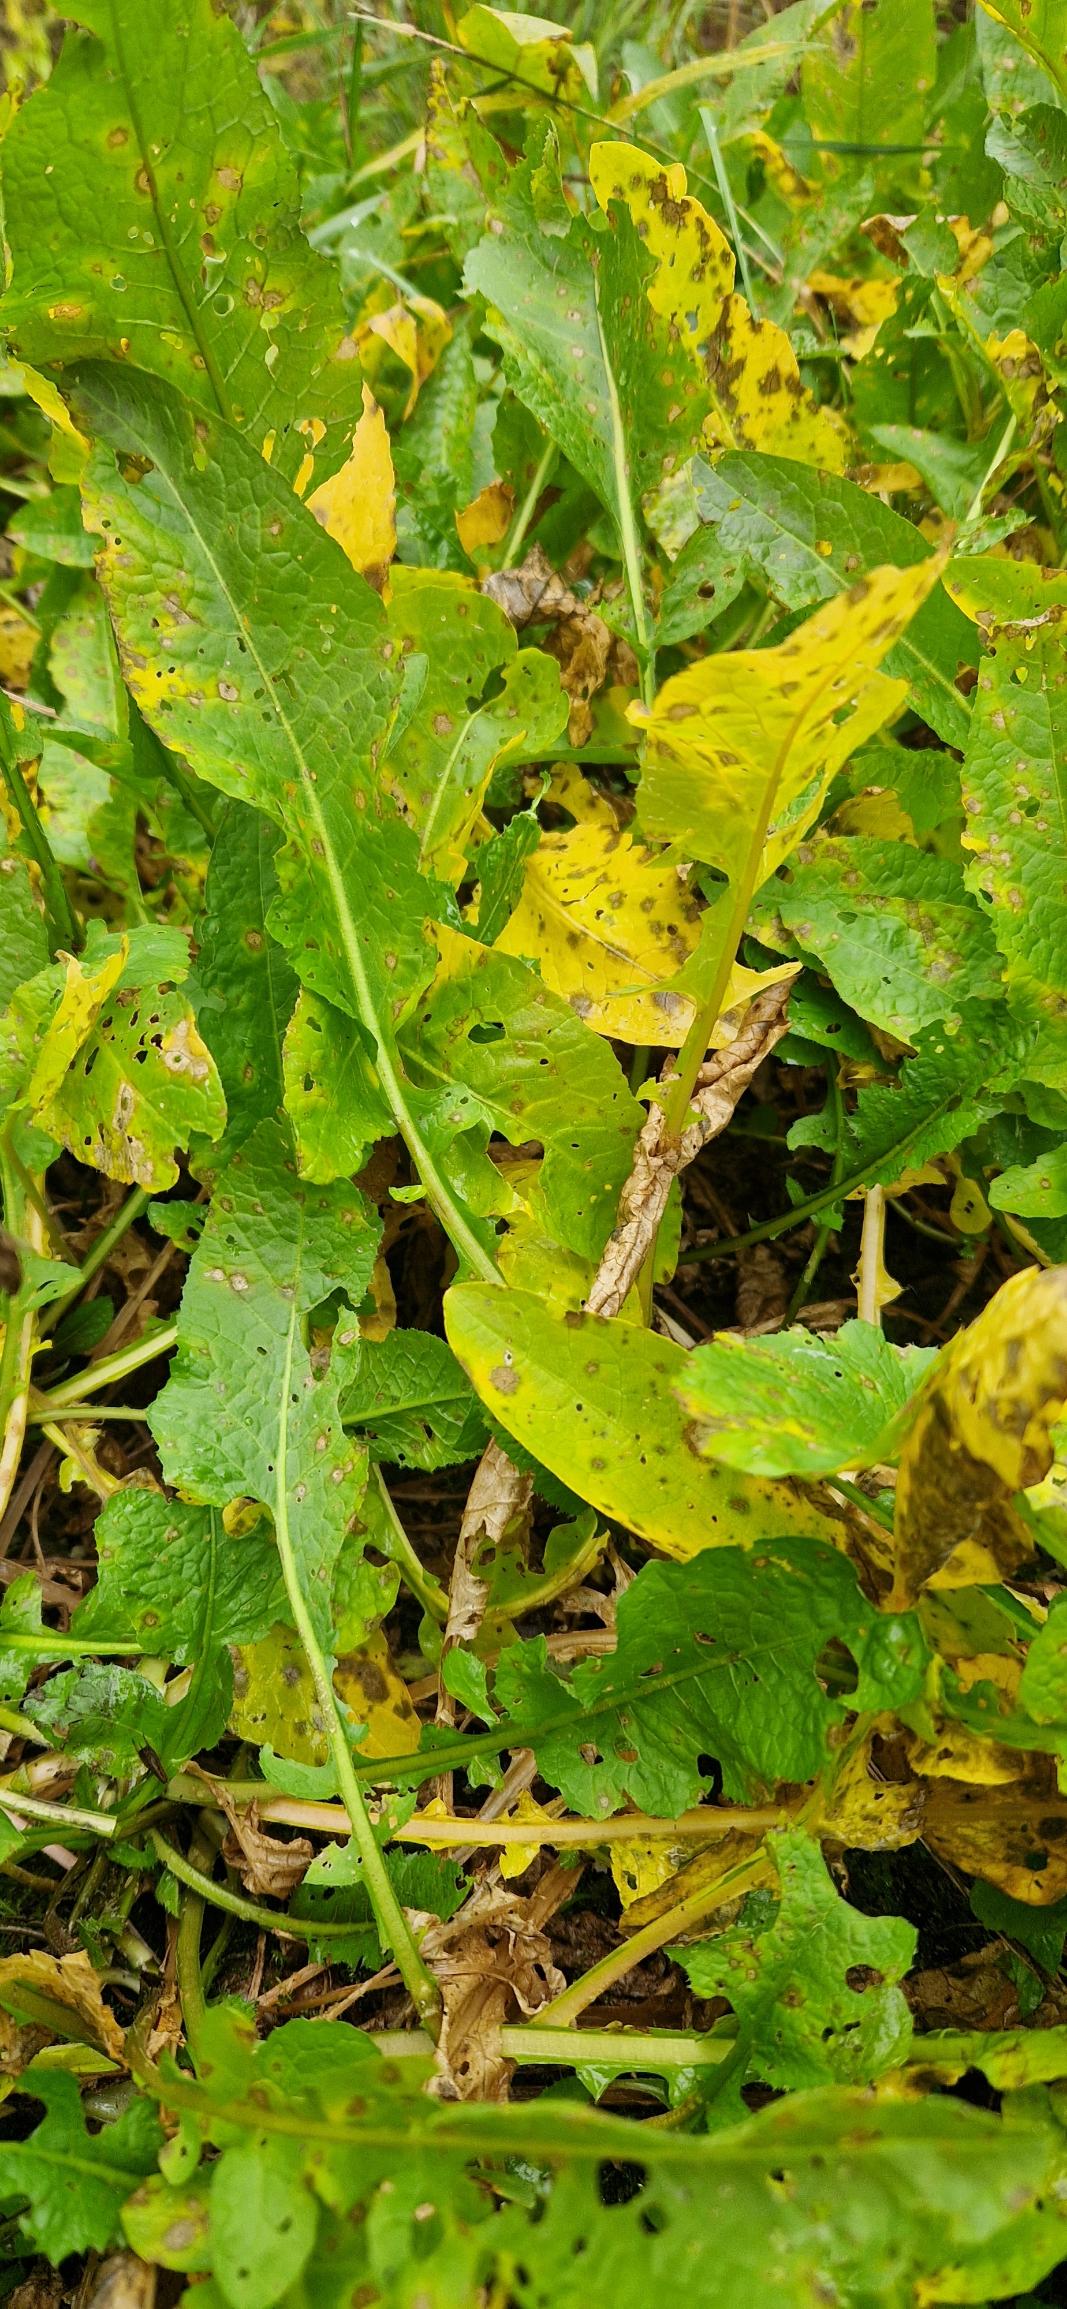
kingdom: Plantae
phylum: Tracheophyta
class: Magnoliopsida
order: Brassicales
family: Brassicaceae
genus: Rorippa
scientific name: Rorippa amphibia
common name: Vandpeberrod
